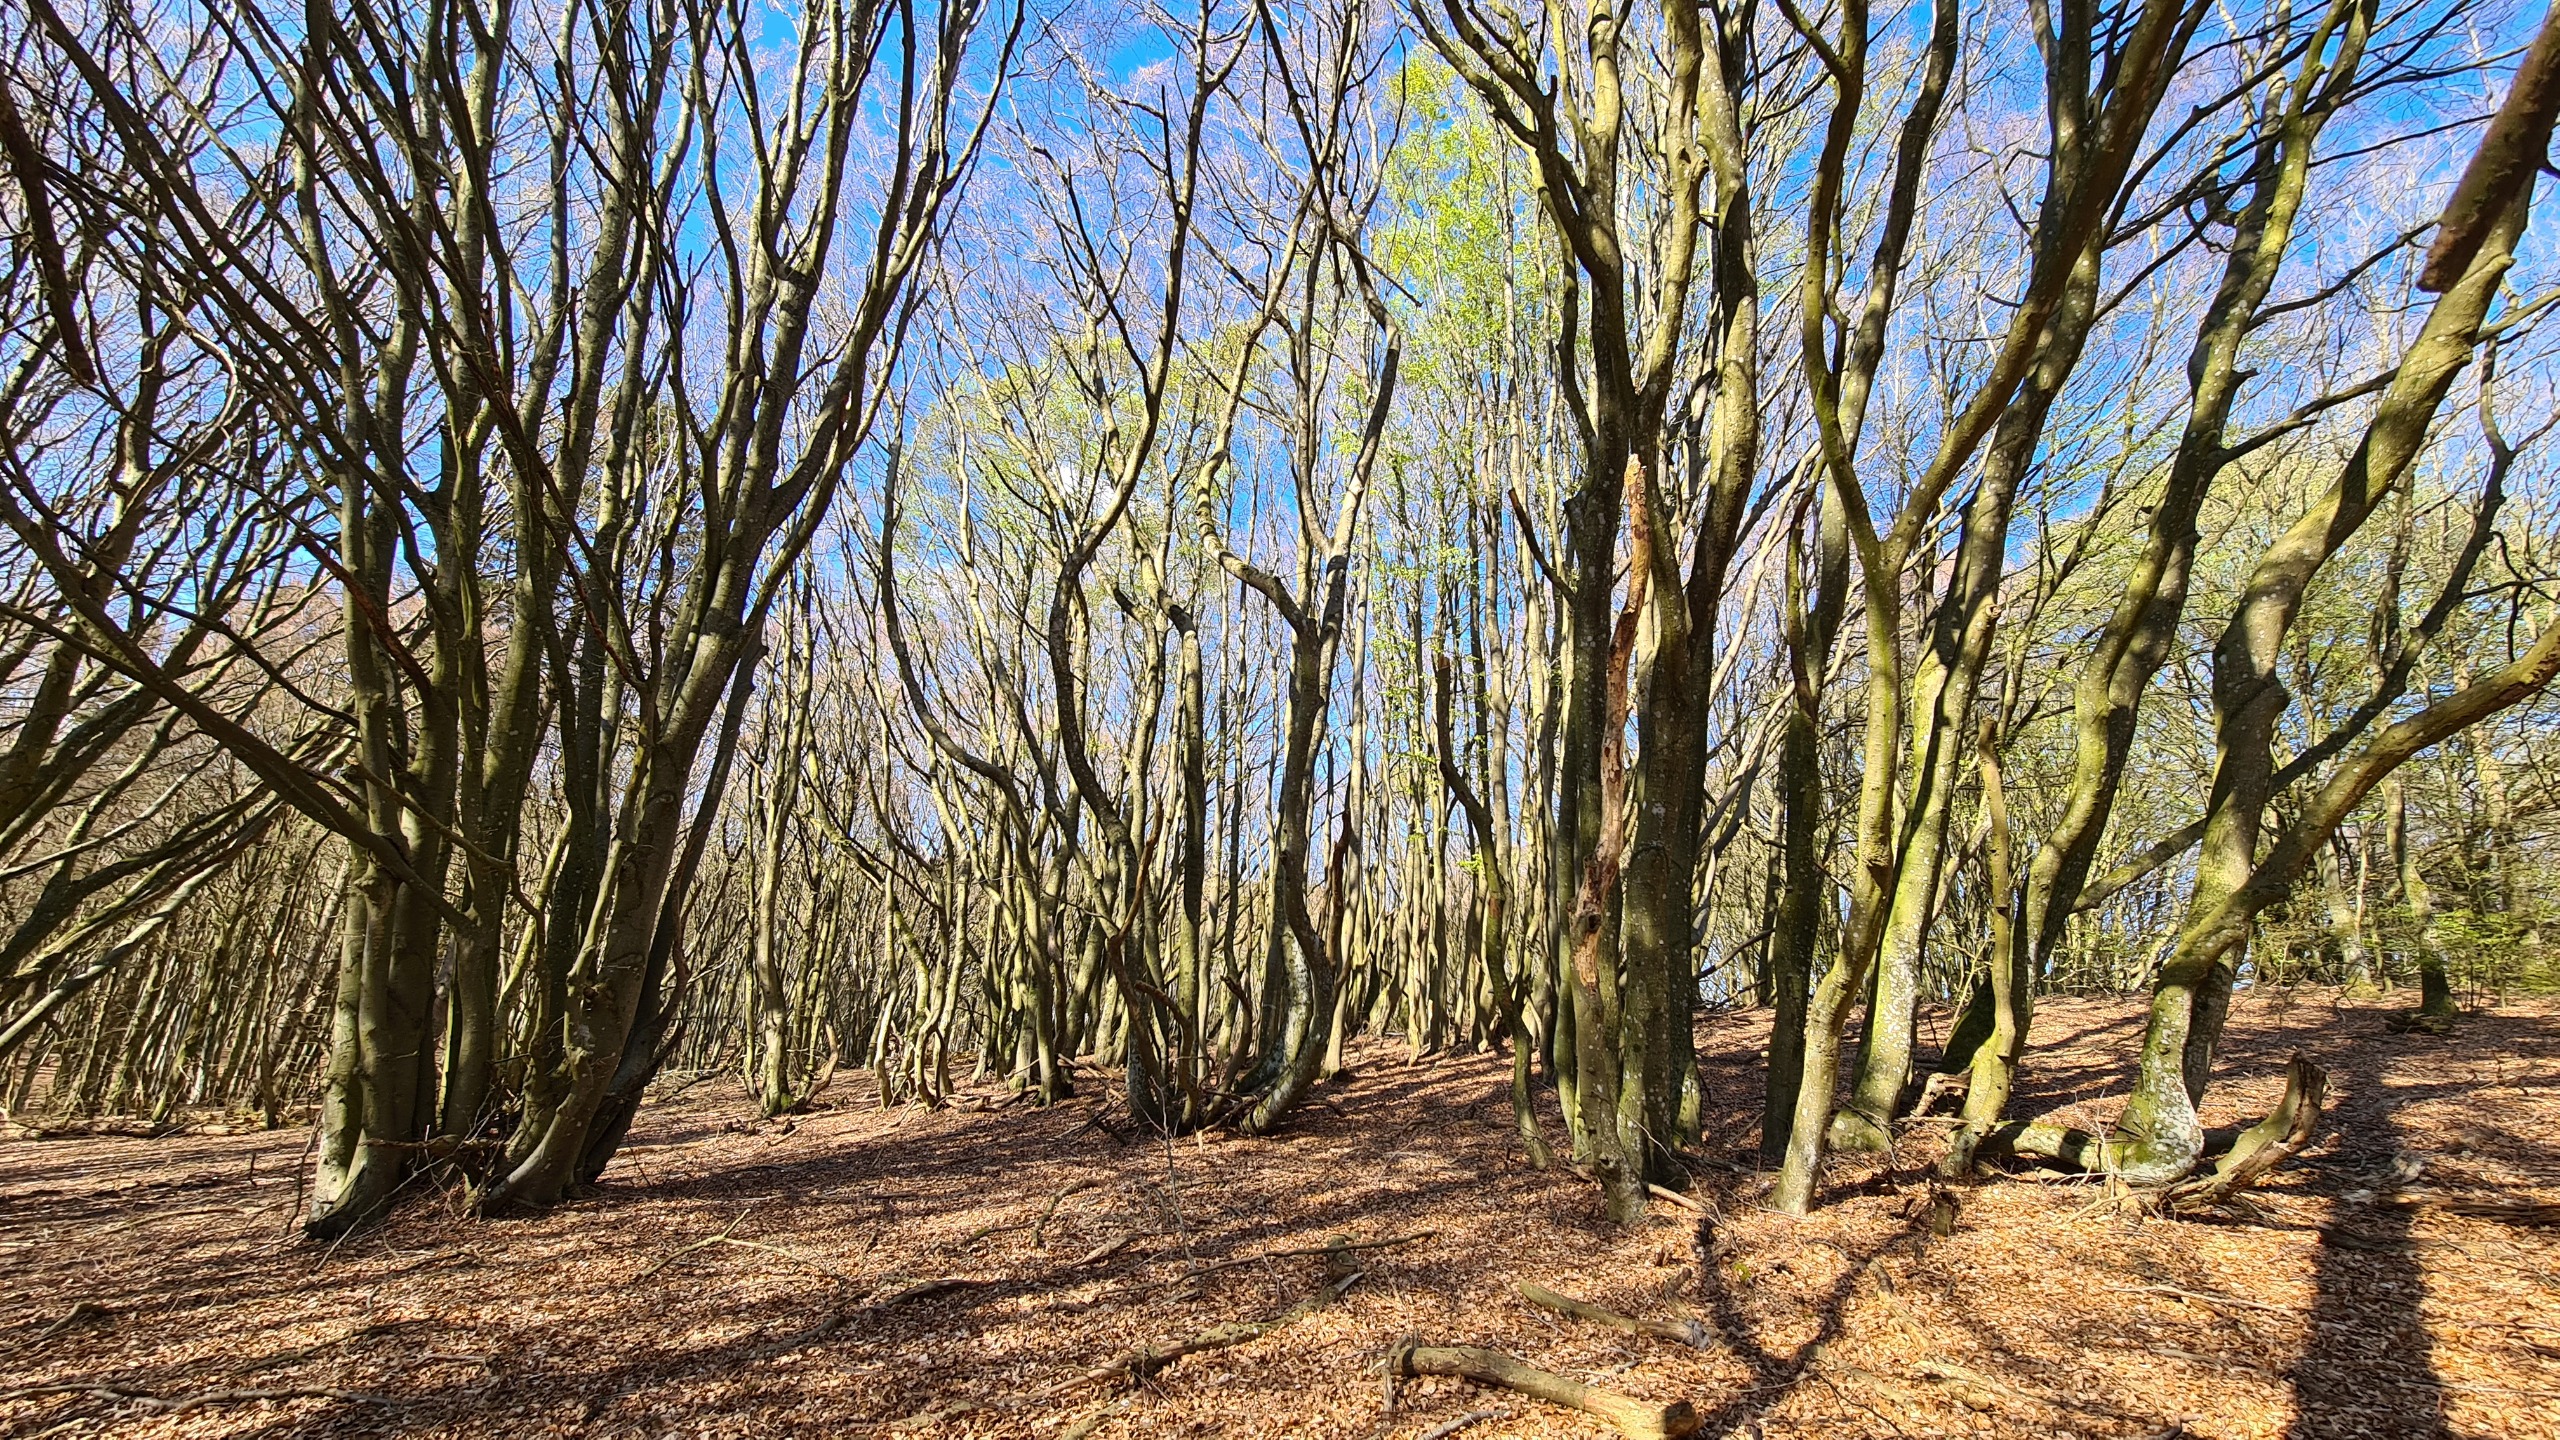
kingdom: Plantae
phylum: Tracheophyta
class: Magnoliopsida
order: Fagales
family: Fagaceae
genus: Fagus
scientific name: Fagus sylvatica
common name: Bøg
